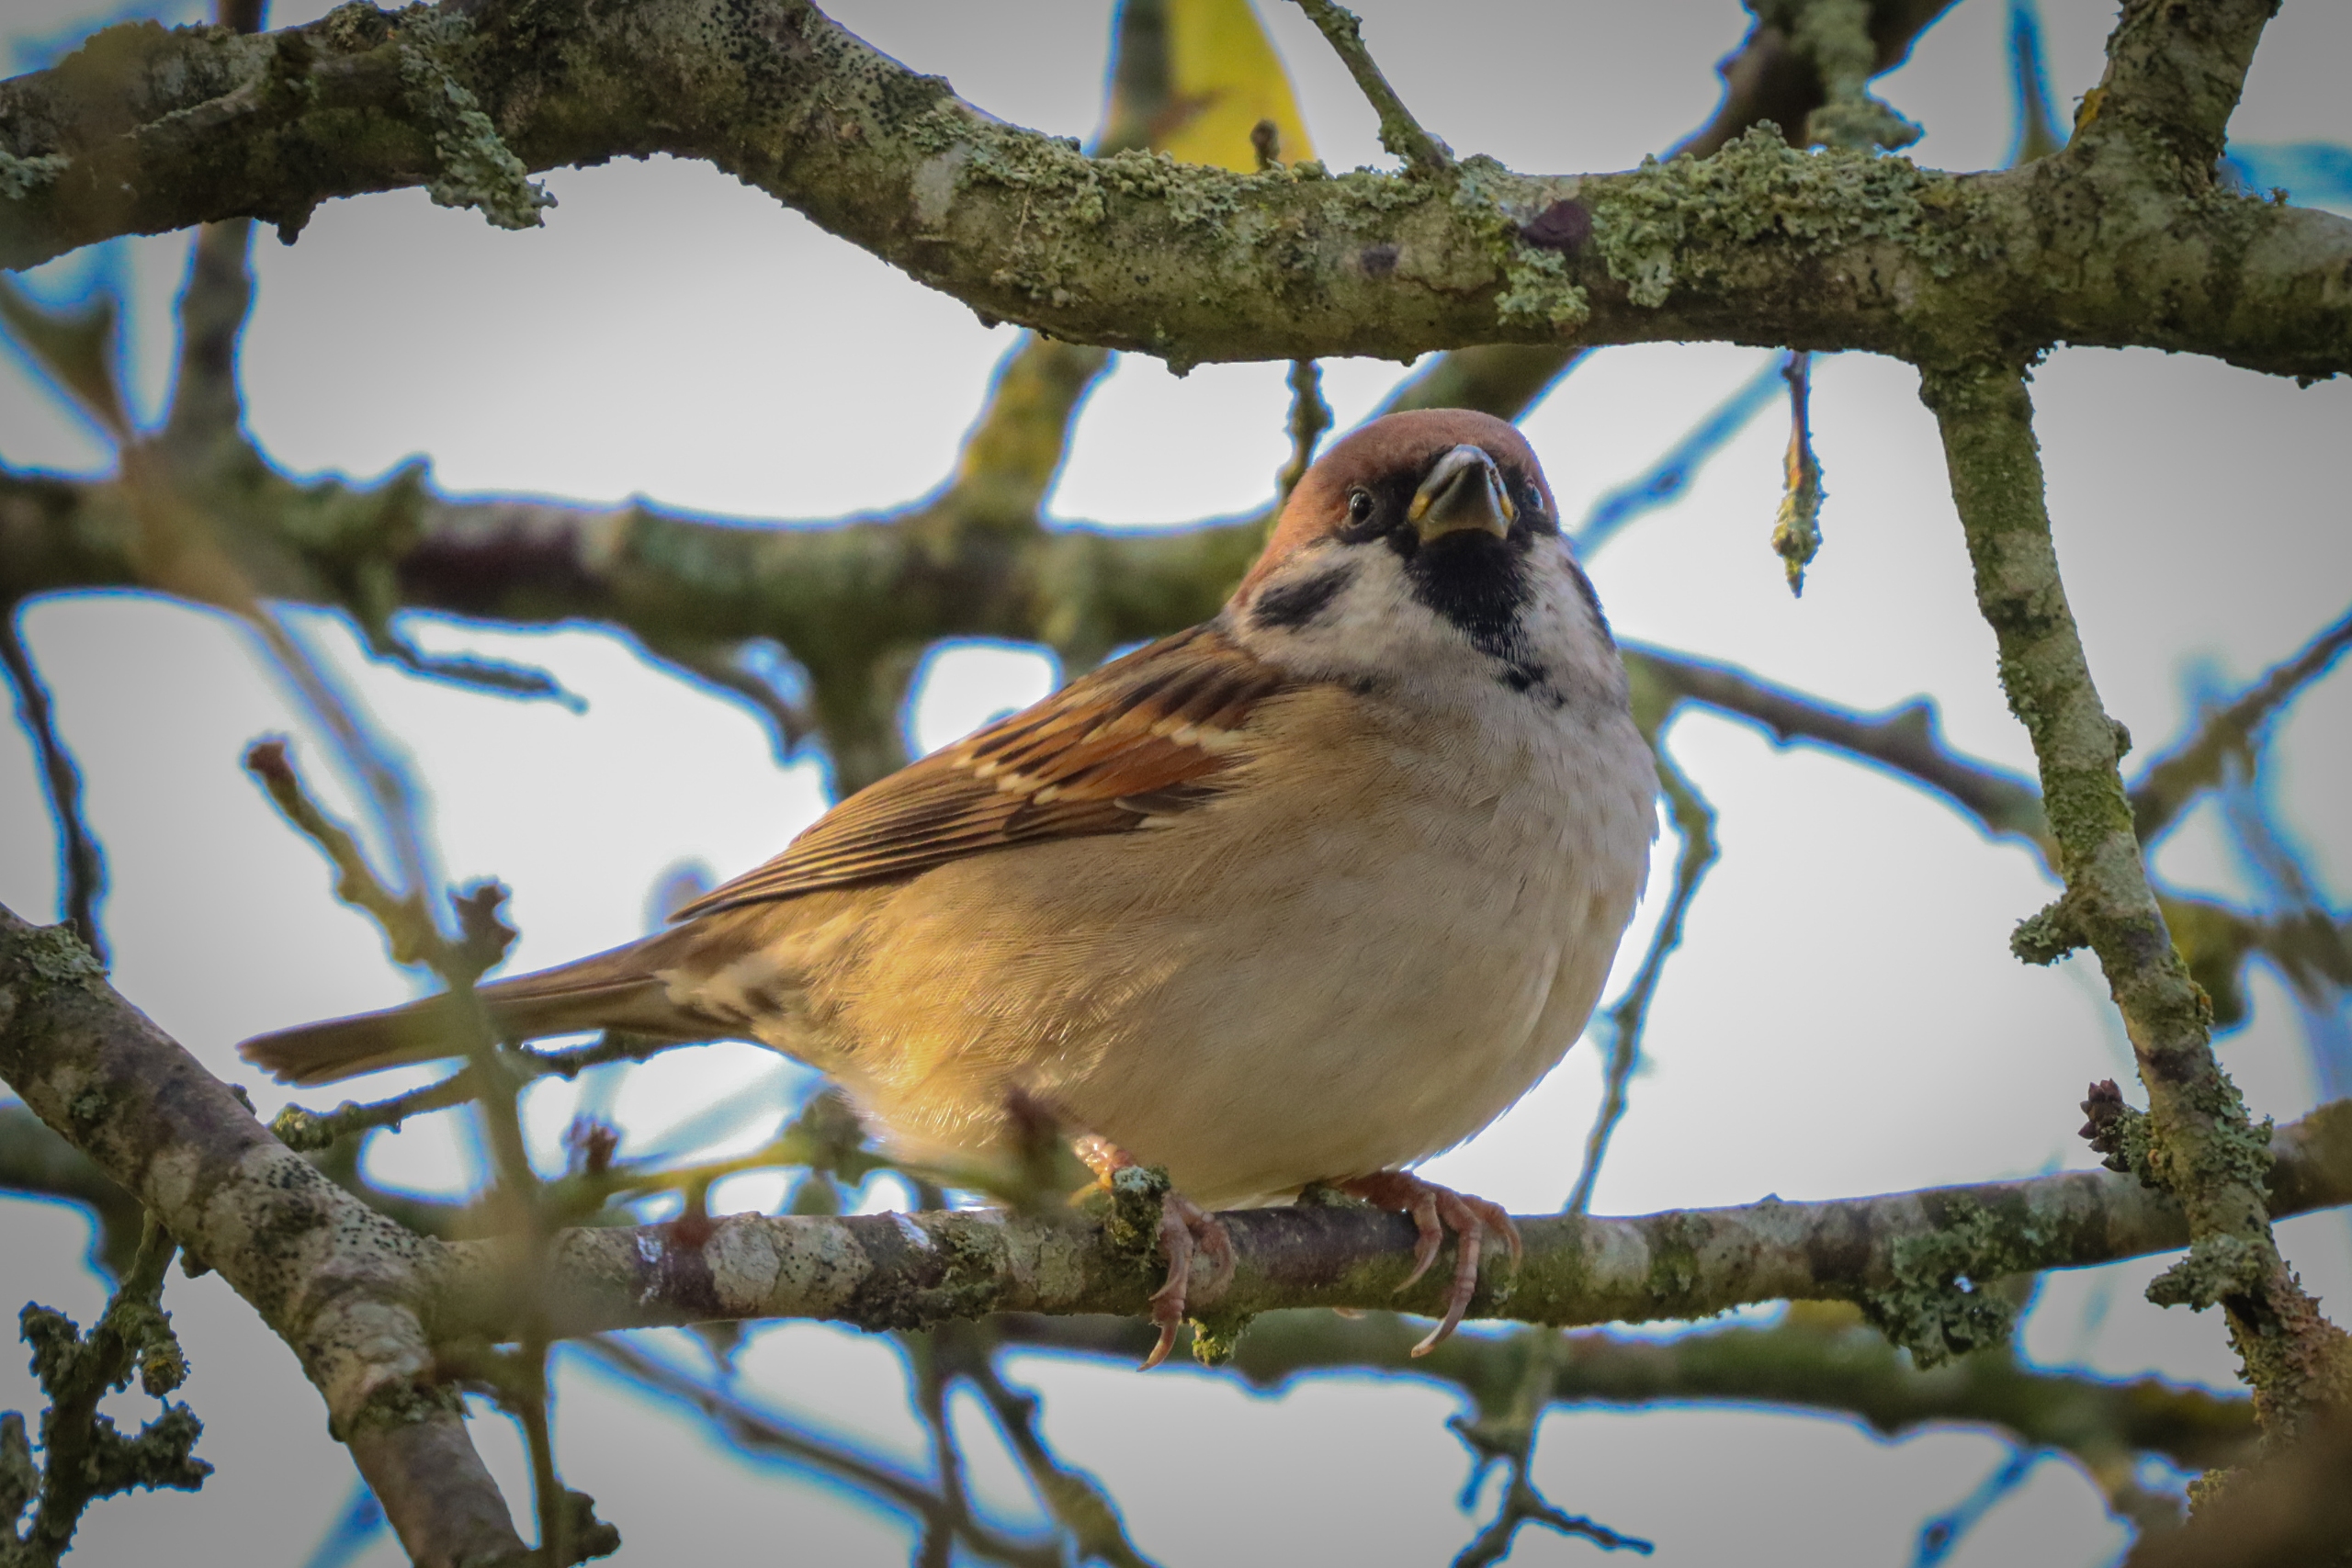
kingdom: Animalia
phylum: Chordata
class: Aves
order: Passeriformes
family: Passeridae
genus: Passer
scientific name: Passer montanus
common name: Skovspurv
